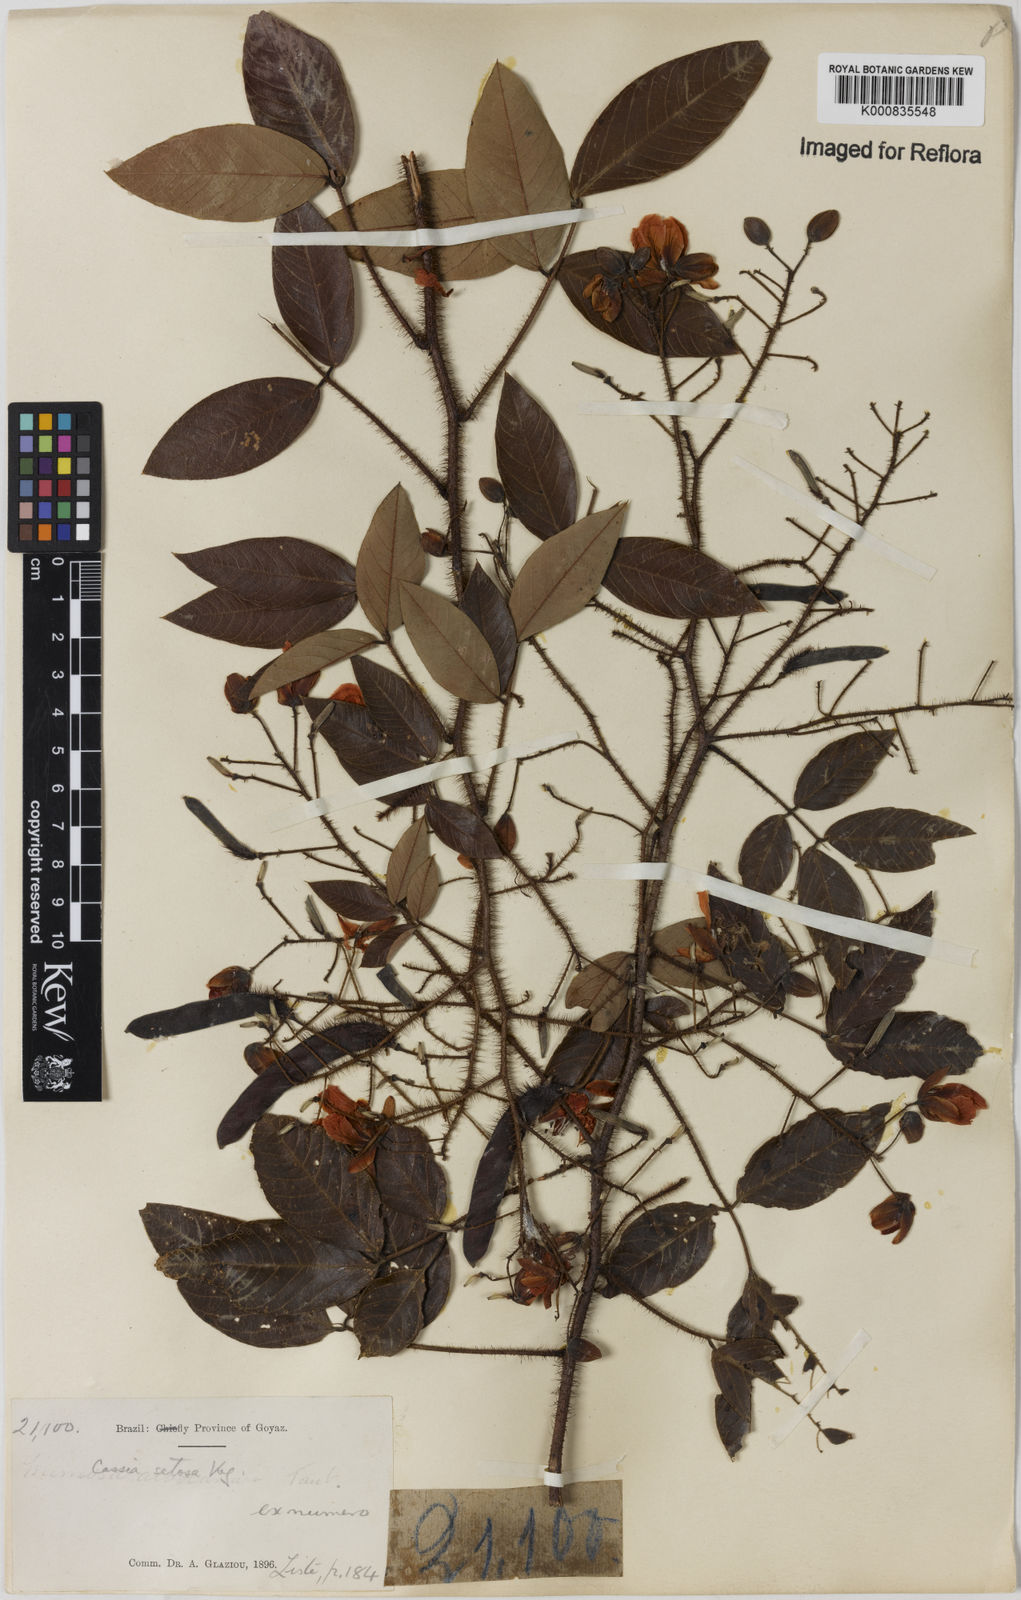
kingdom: Plantae
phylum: Tracheophyta
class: Magnoliopsida
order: Fabales
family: Fabaceae
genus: Chamaecrista
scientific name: Chamaecrista setosa
